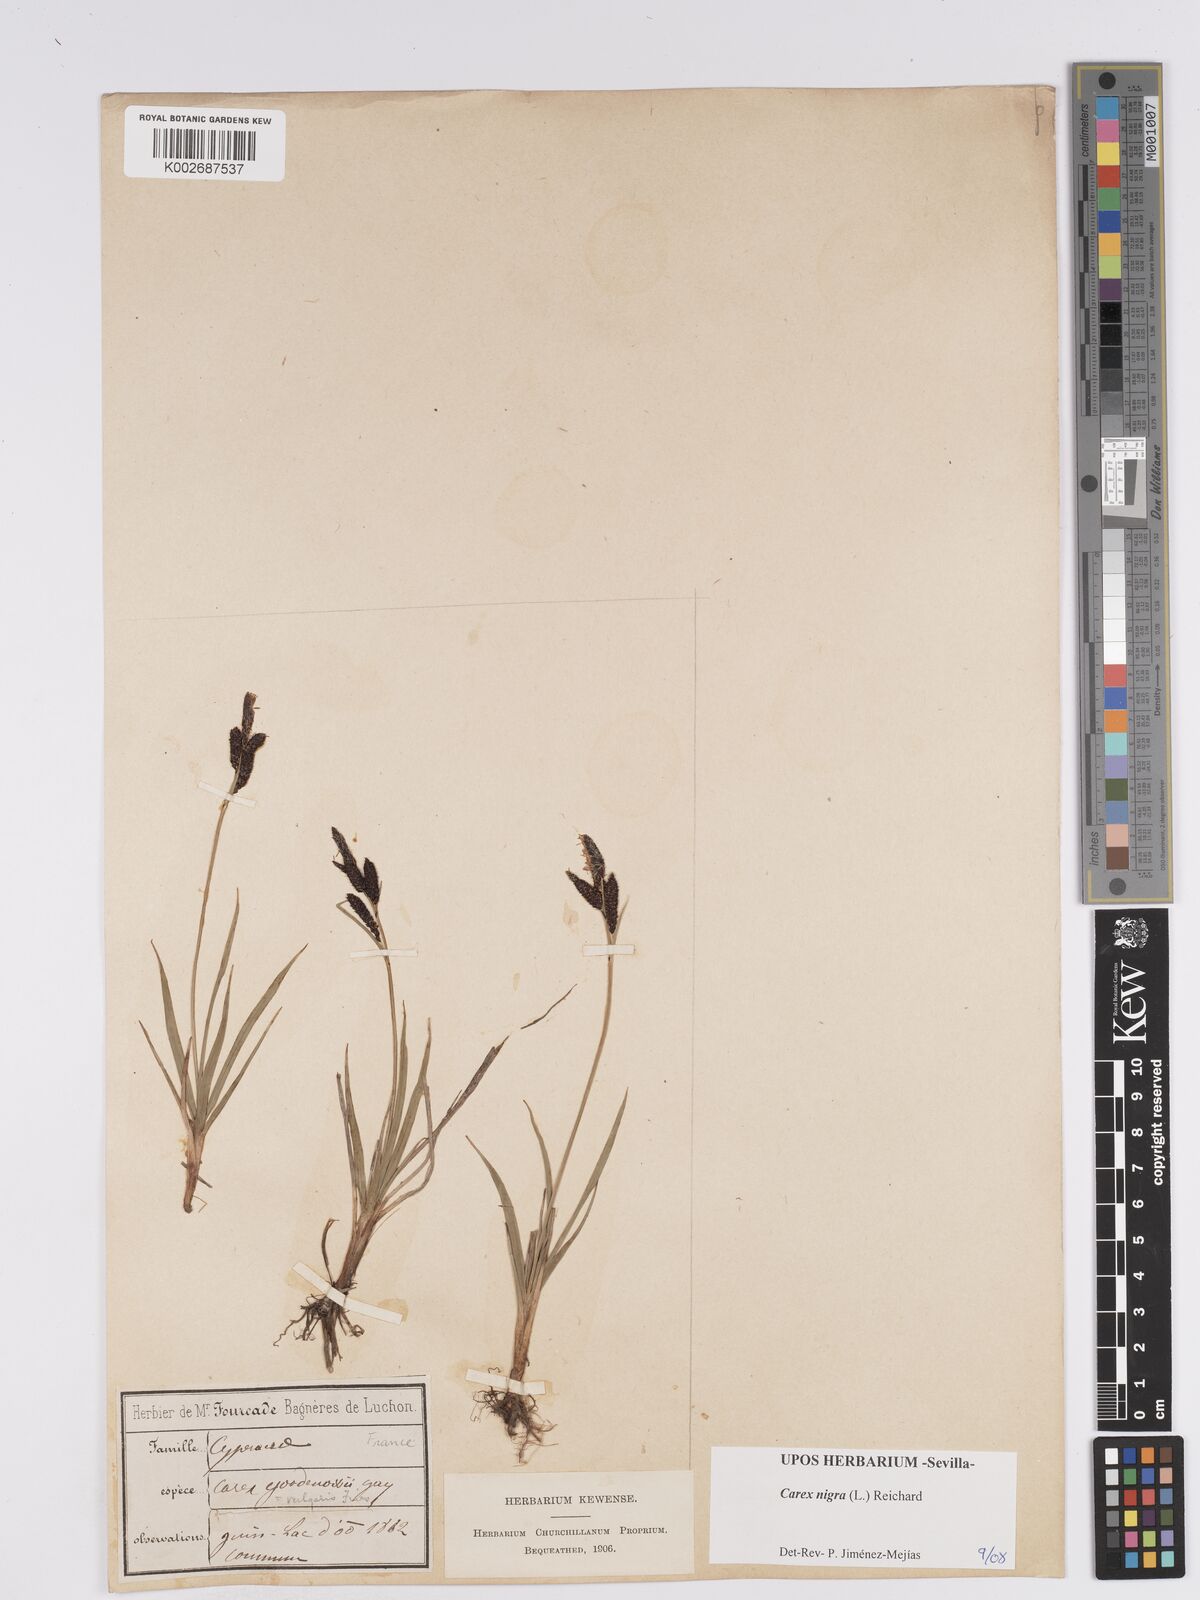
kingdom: Plantae
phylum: Tracheophyta
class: Liliopsida
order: Poales
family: Cyperaceae
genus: Carex
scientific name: Carex nigra
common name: Common sedge
